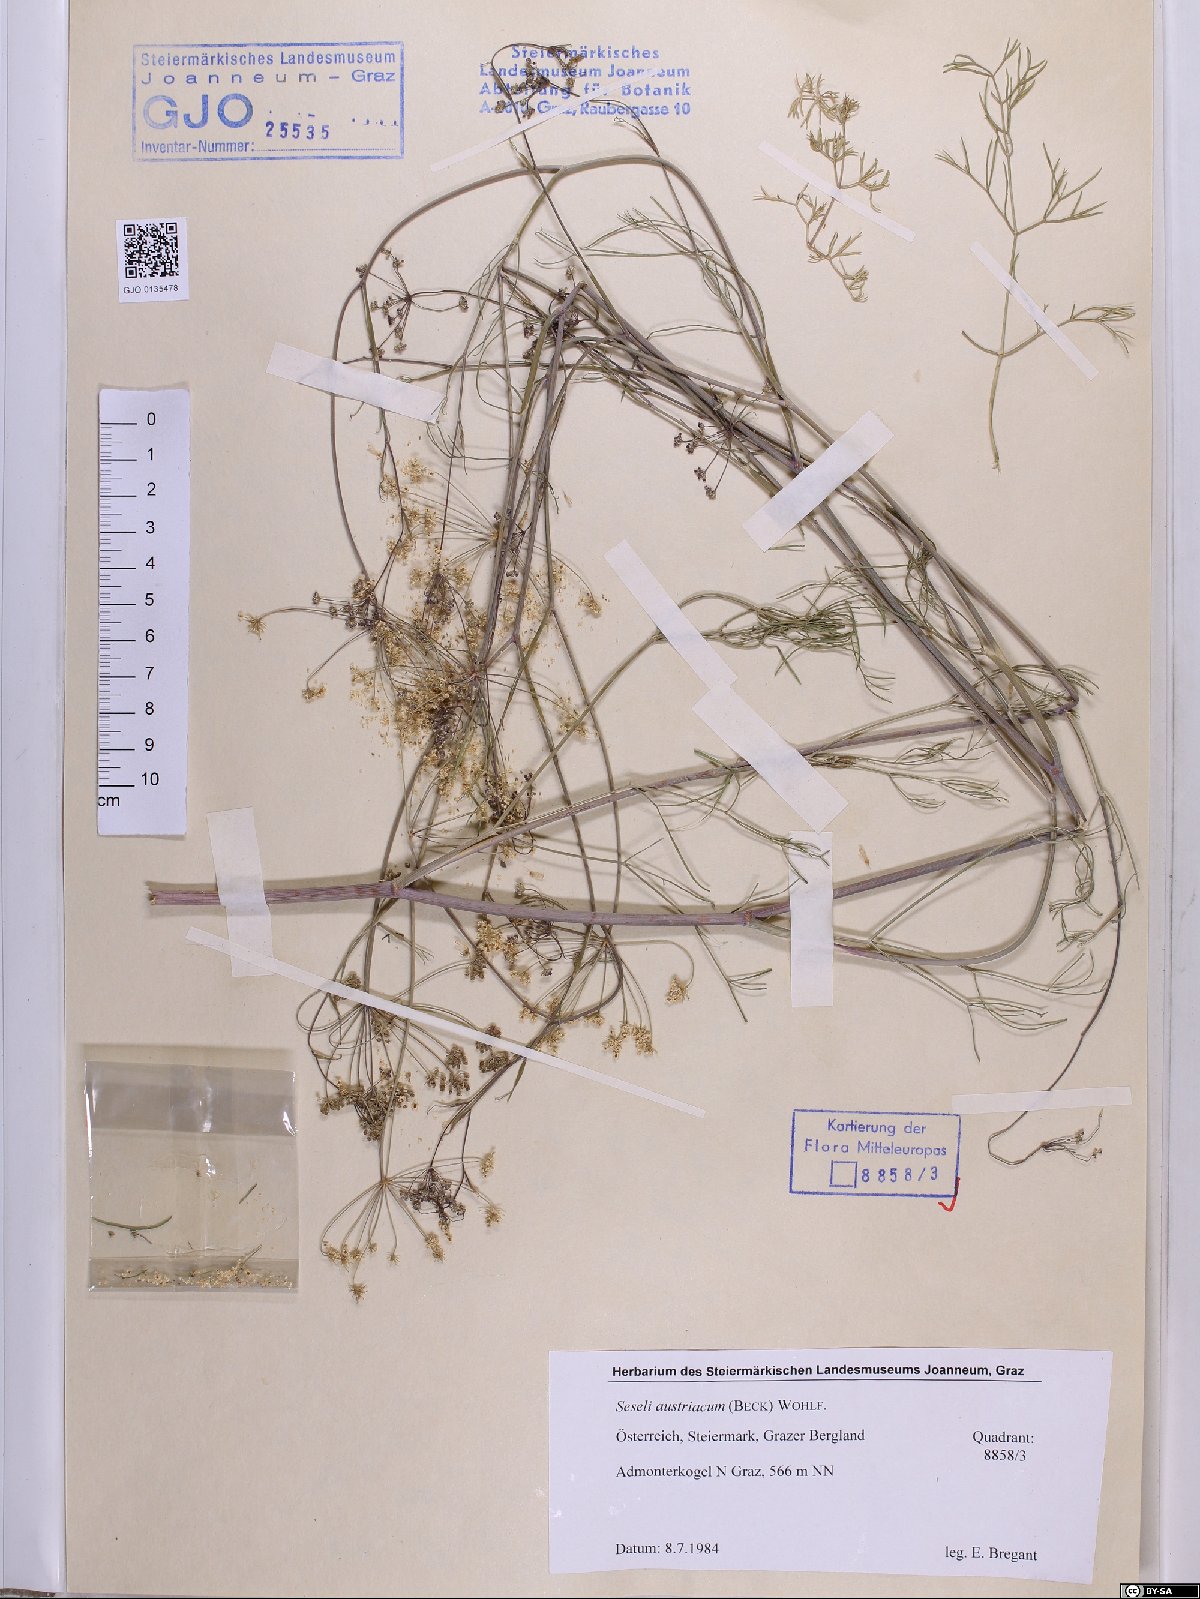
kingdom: Plantae
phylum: Tracheophyta
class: Magnoliopsida
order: Apiales
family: Apiaceae
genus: Seseli
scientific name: Seseli austriacum
